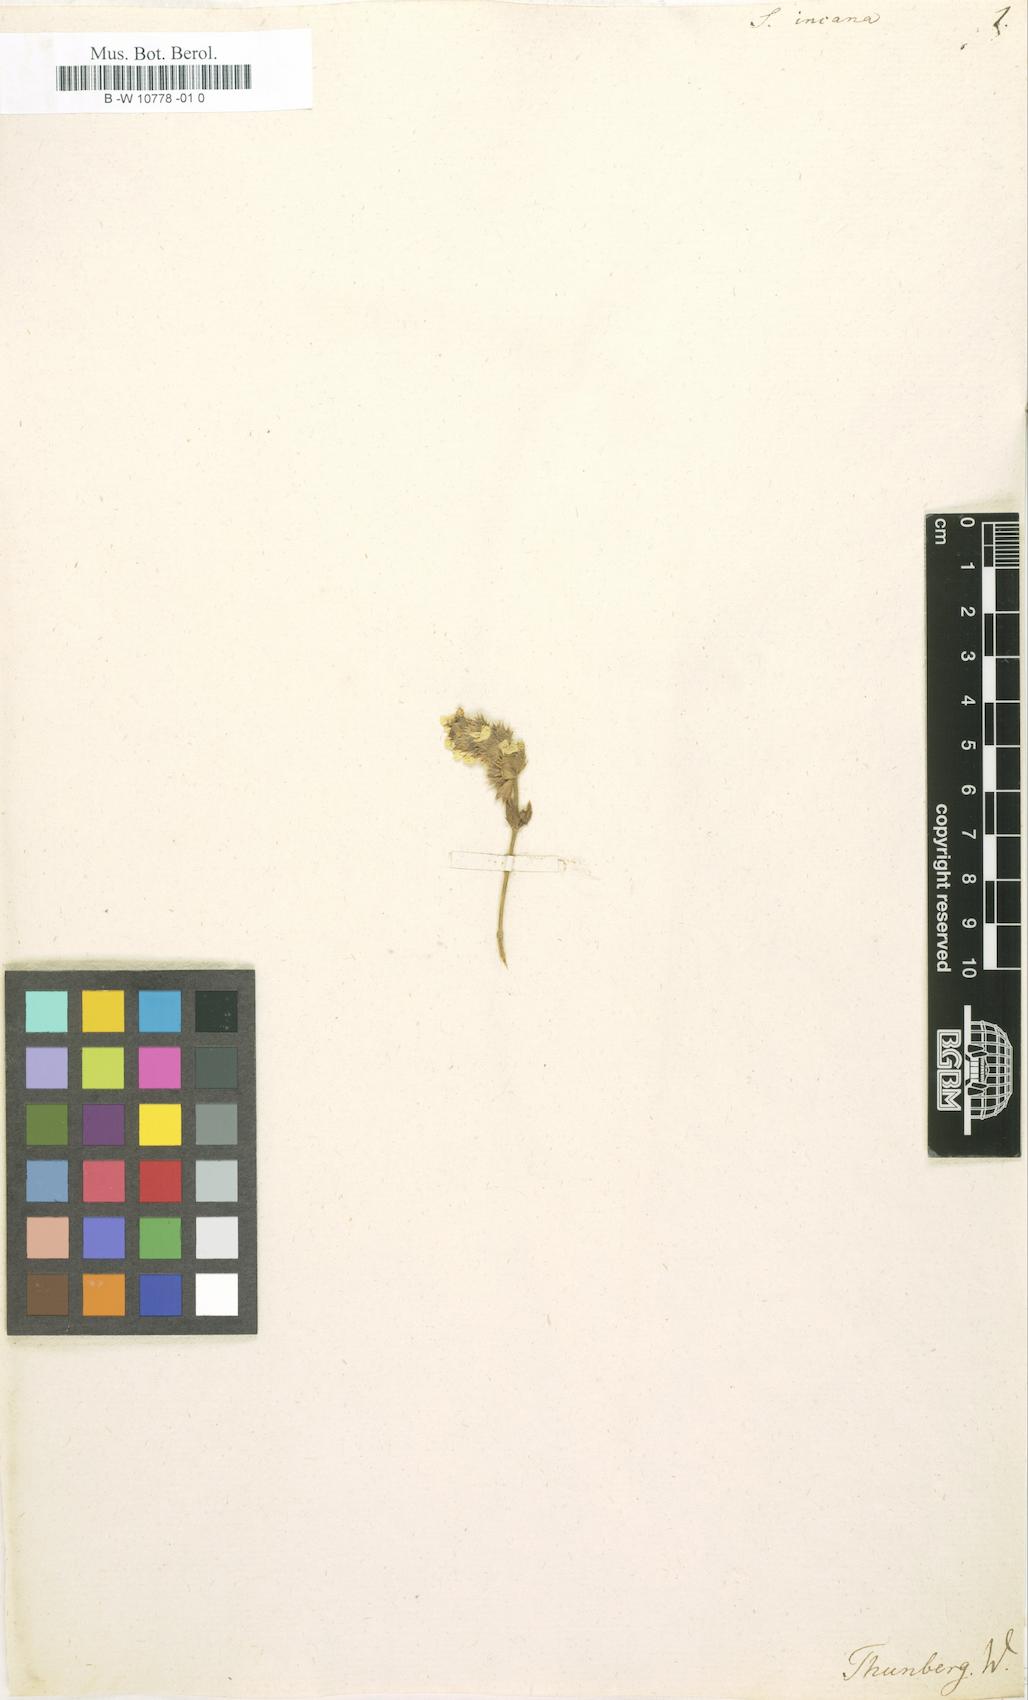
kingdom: Plantae
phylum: Tracheophyta
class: Magnoliopsida
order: Lamiales
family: Lamiaceae
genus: Sideritis
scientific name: Sideritis incana
